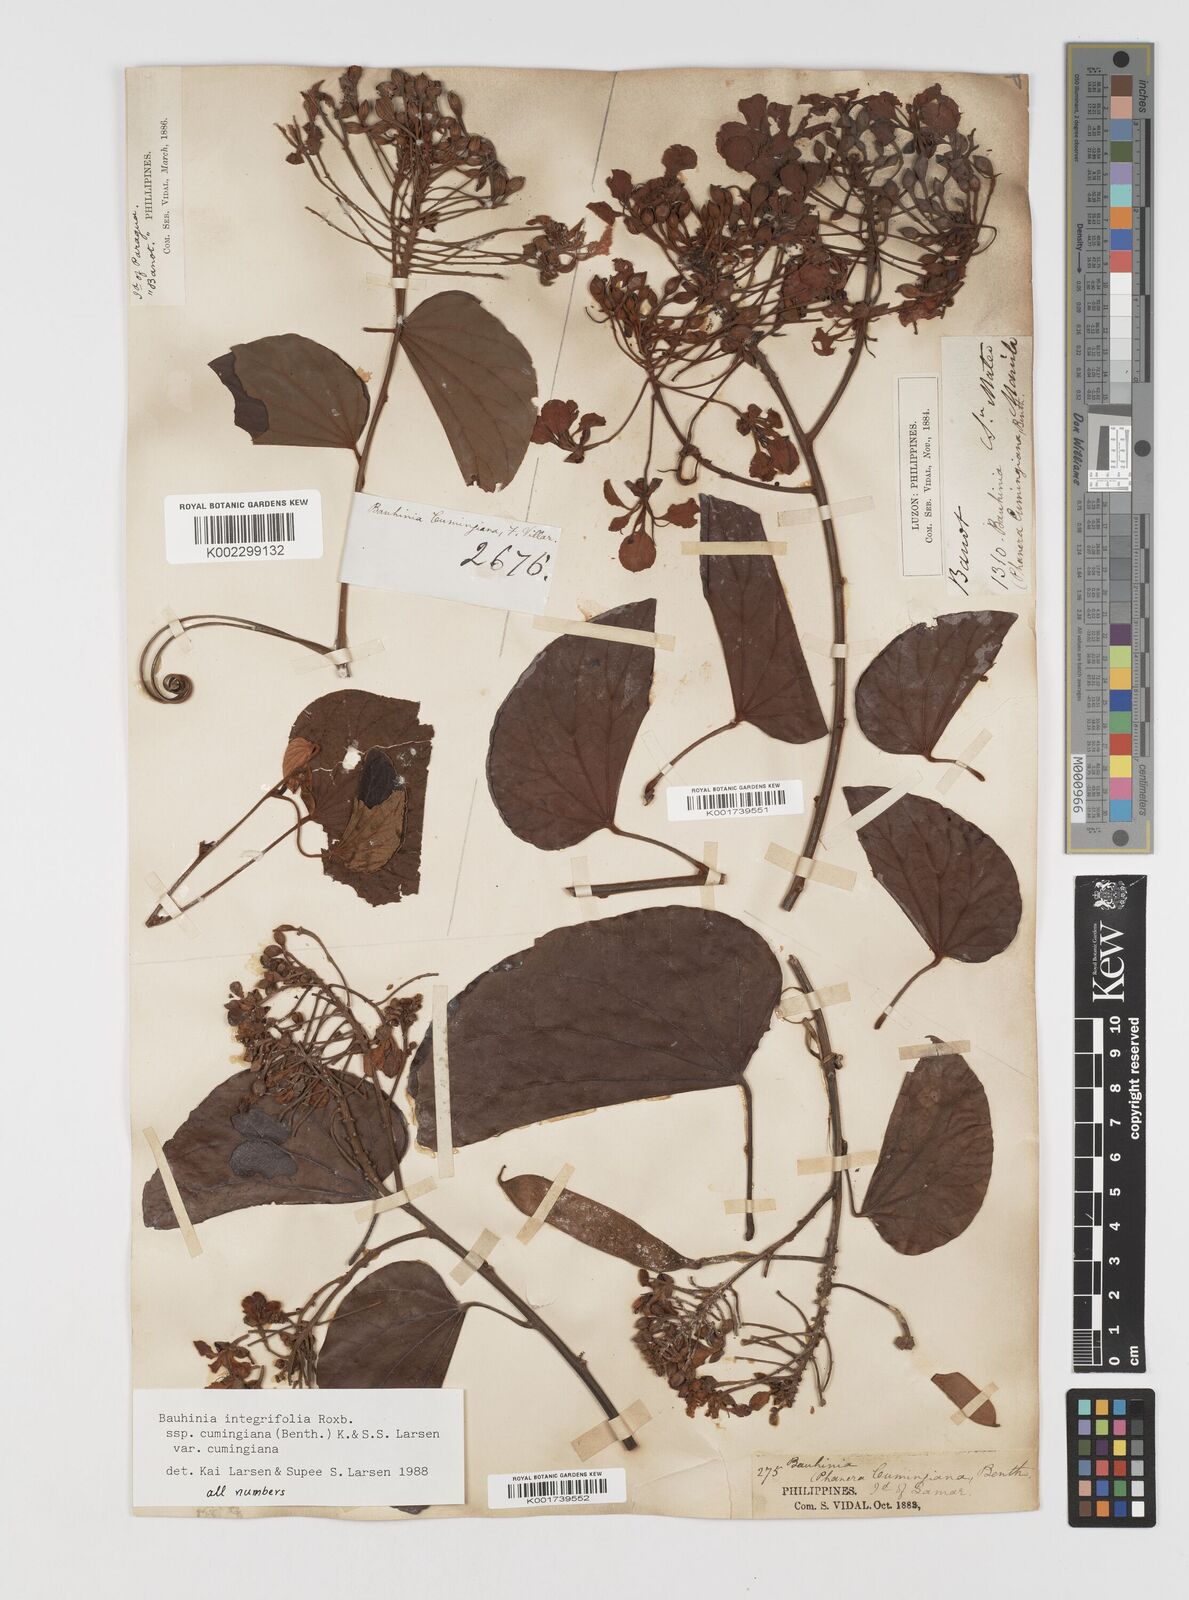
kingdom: Plantae
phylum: Tracheophyta
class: Magnoliopsida
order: Fabales
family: Fabaceae
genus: Phanera
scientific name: Phanera integrifolia
